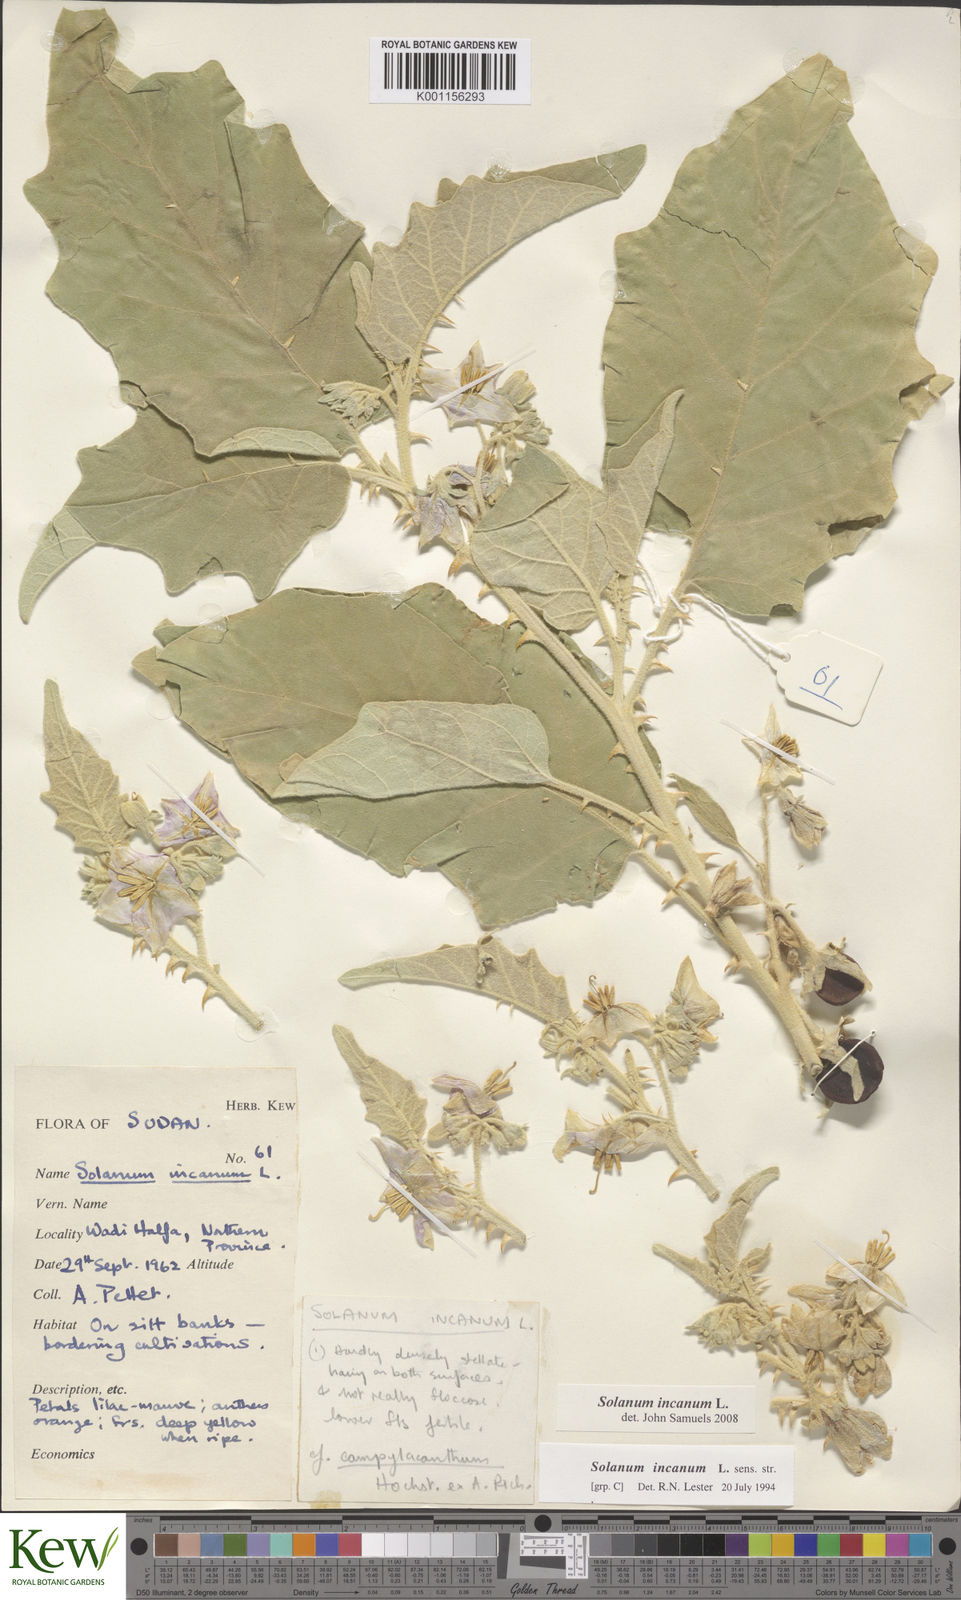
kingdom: Plantae
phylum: Tracheophyta
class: Magnoliopsida
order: Solanales
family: Solanaceae
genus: Solanum
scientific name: Solanum incanum
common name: Bitter apple
